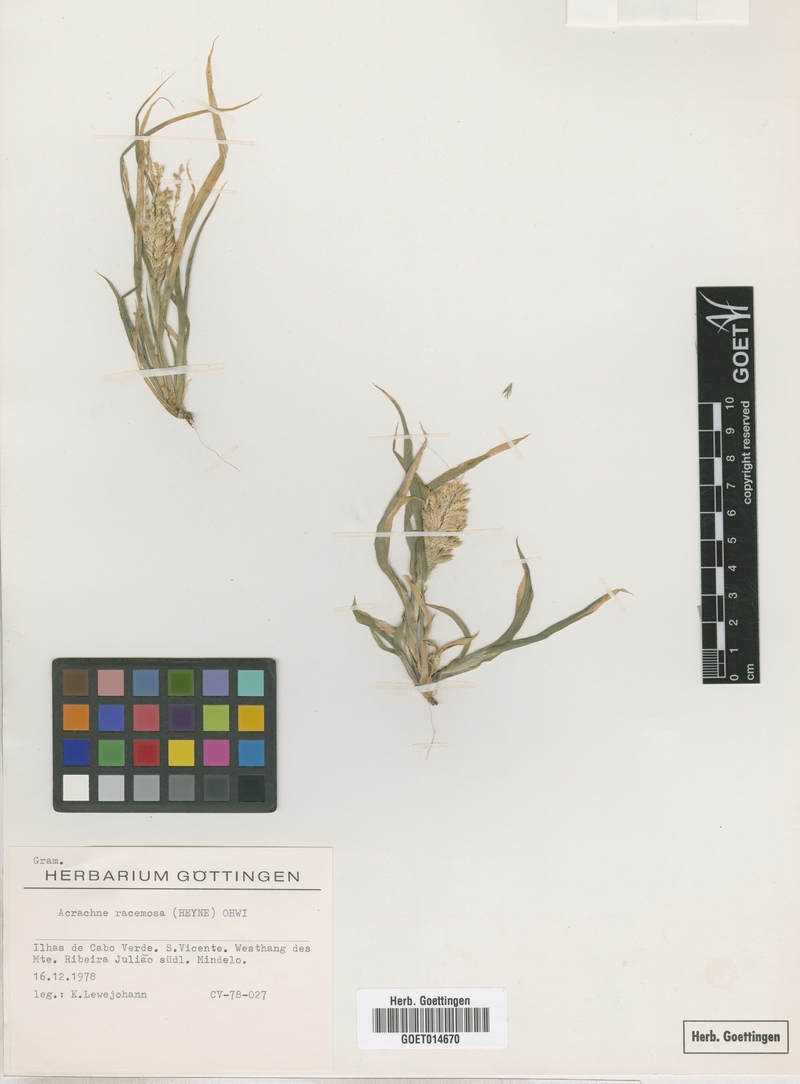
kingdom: Plantae
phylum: Tracheophyta
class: Liliopsida
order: Poales
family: Poaceae
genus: Acrachne
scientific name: Acrachne racemosa
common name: Goosegrass
